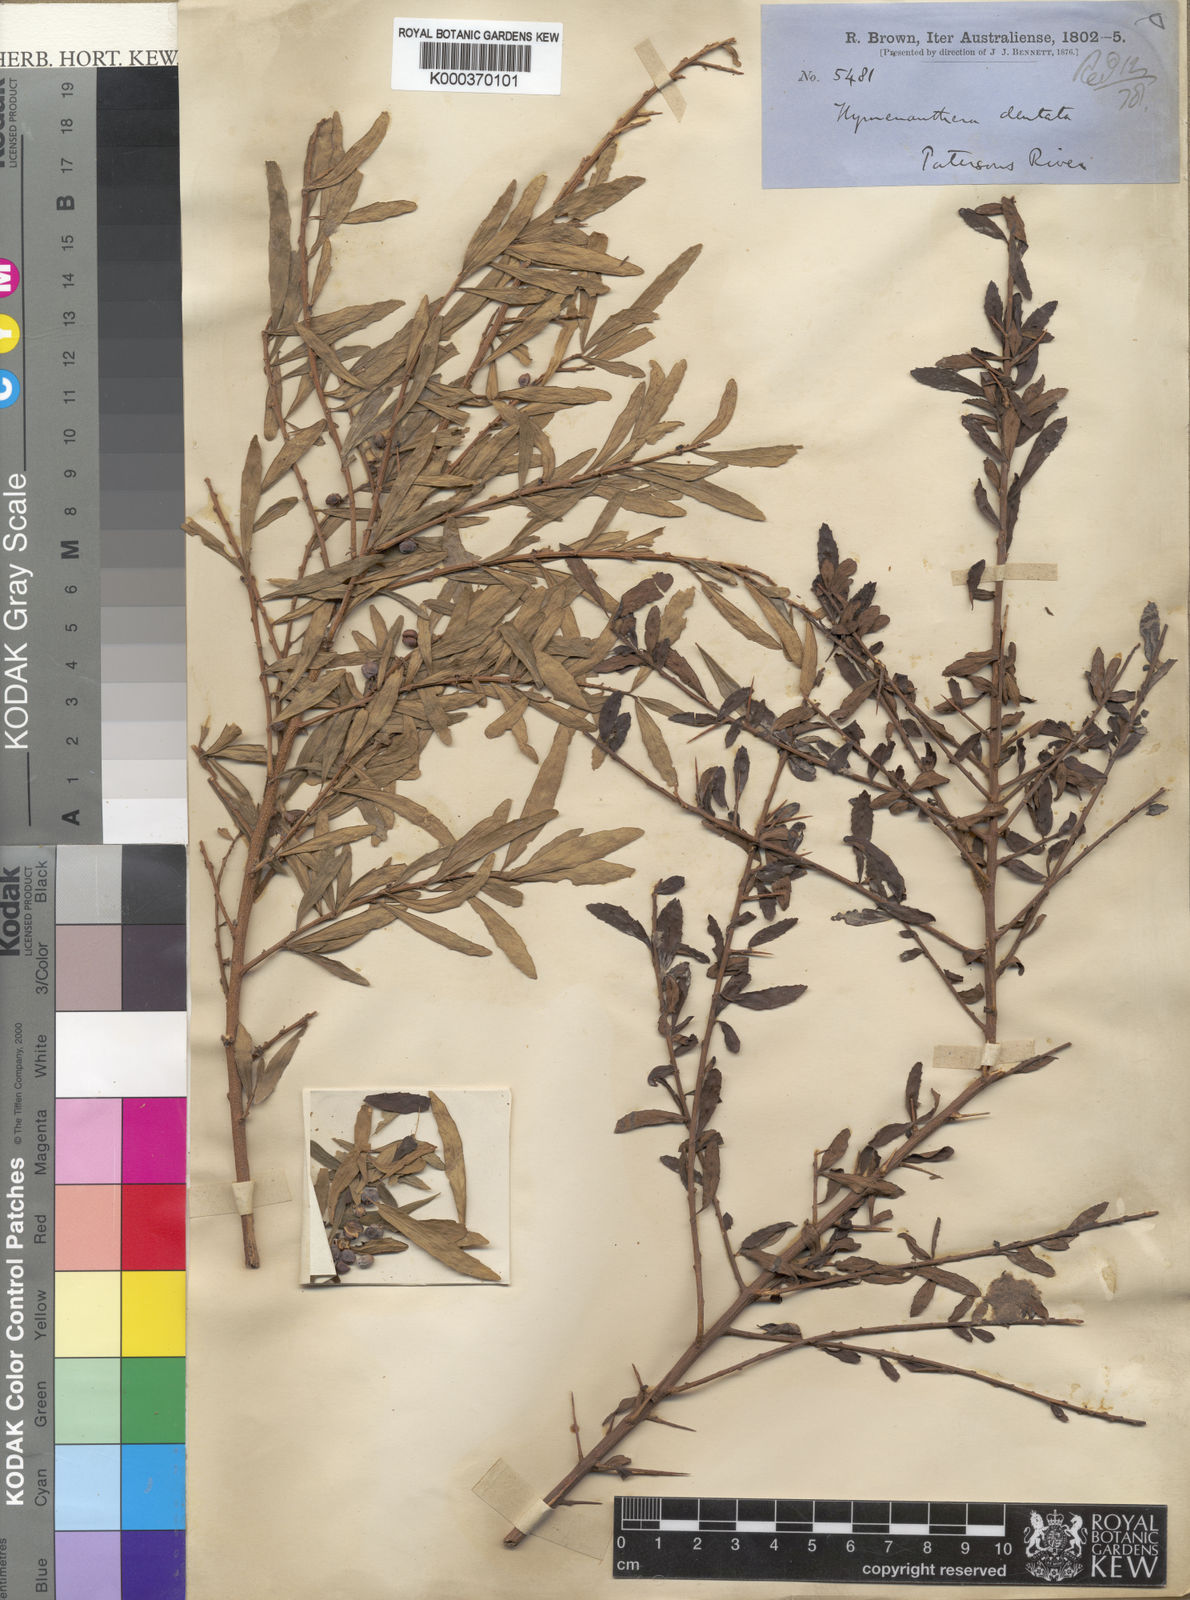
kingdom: Plantae
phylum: Tracheophyta
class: Magnoliopsida
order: Malpighiales
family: Violaceae
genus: Melicytus
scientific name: Melicytus
